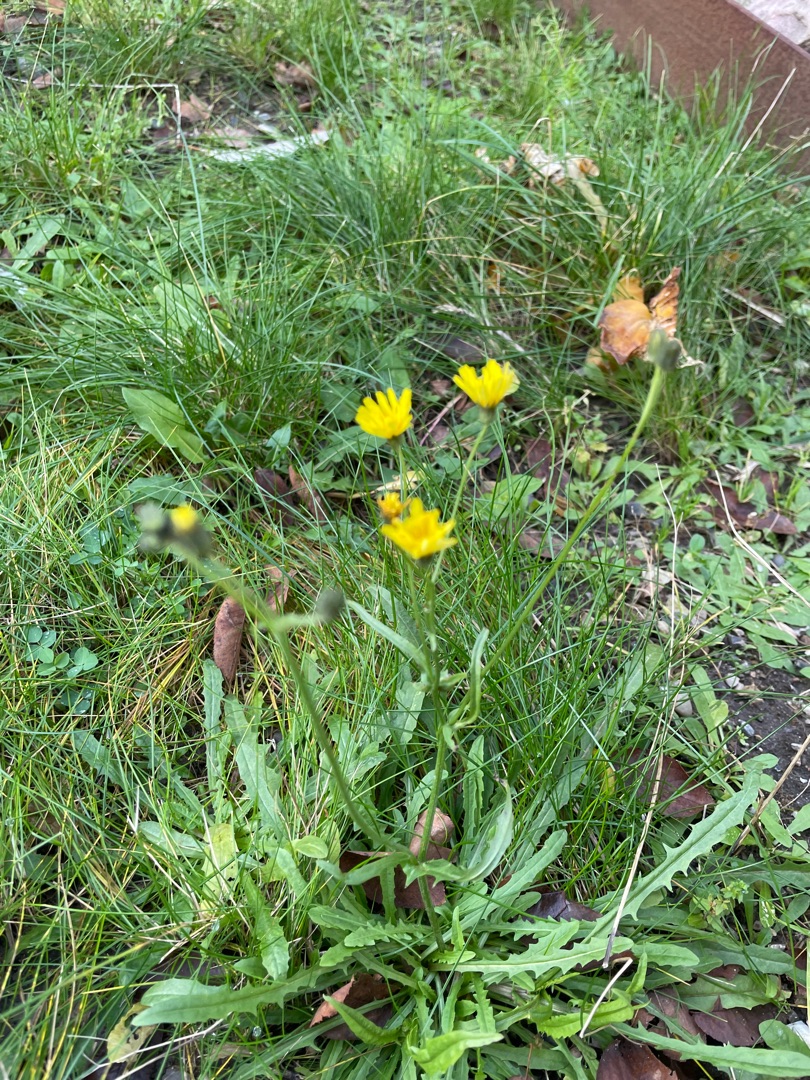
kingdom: Plantae
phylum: Tracheophyta
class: Magnoliopsida
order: Asterales
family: Asteraceae
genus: Crepis
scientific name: Crepis capillaris
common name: Grøn høgeskæg
